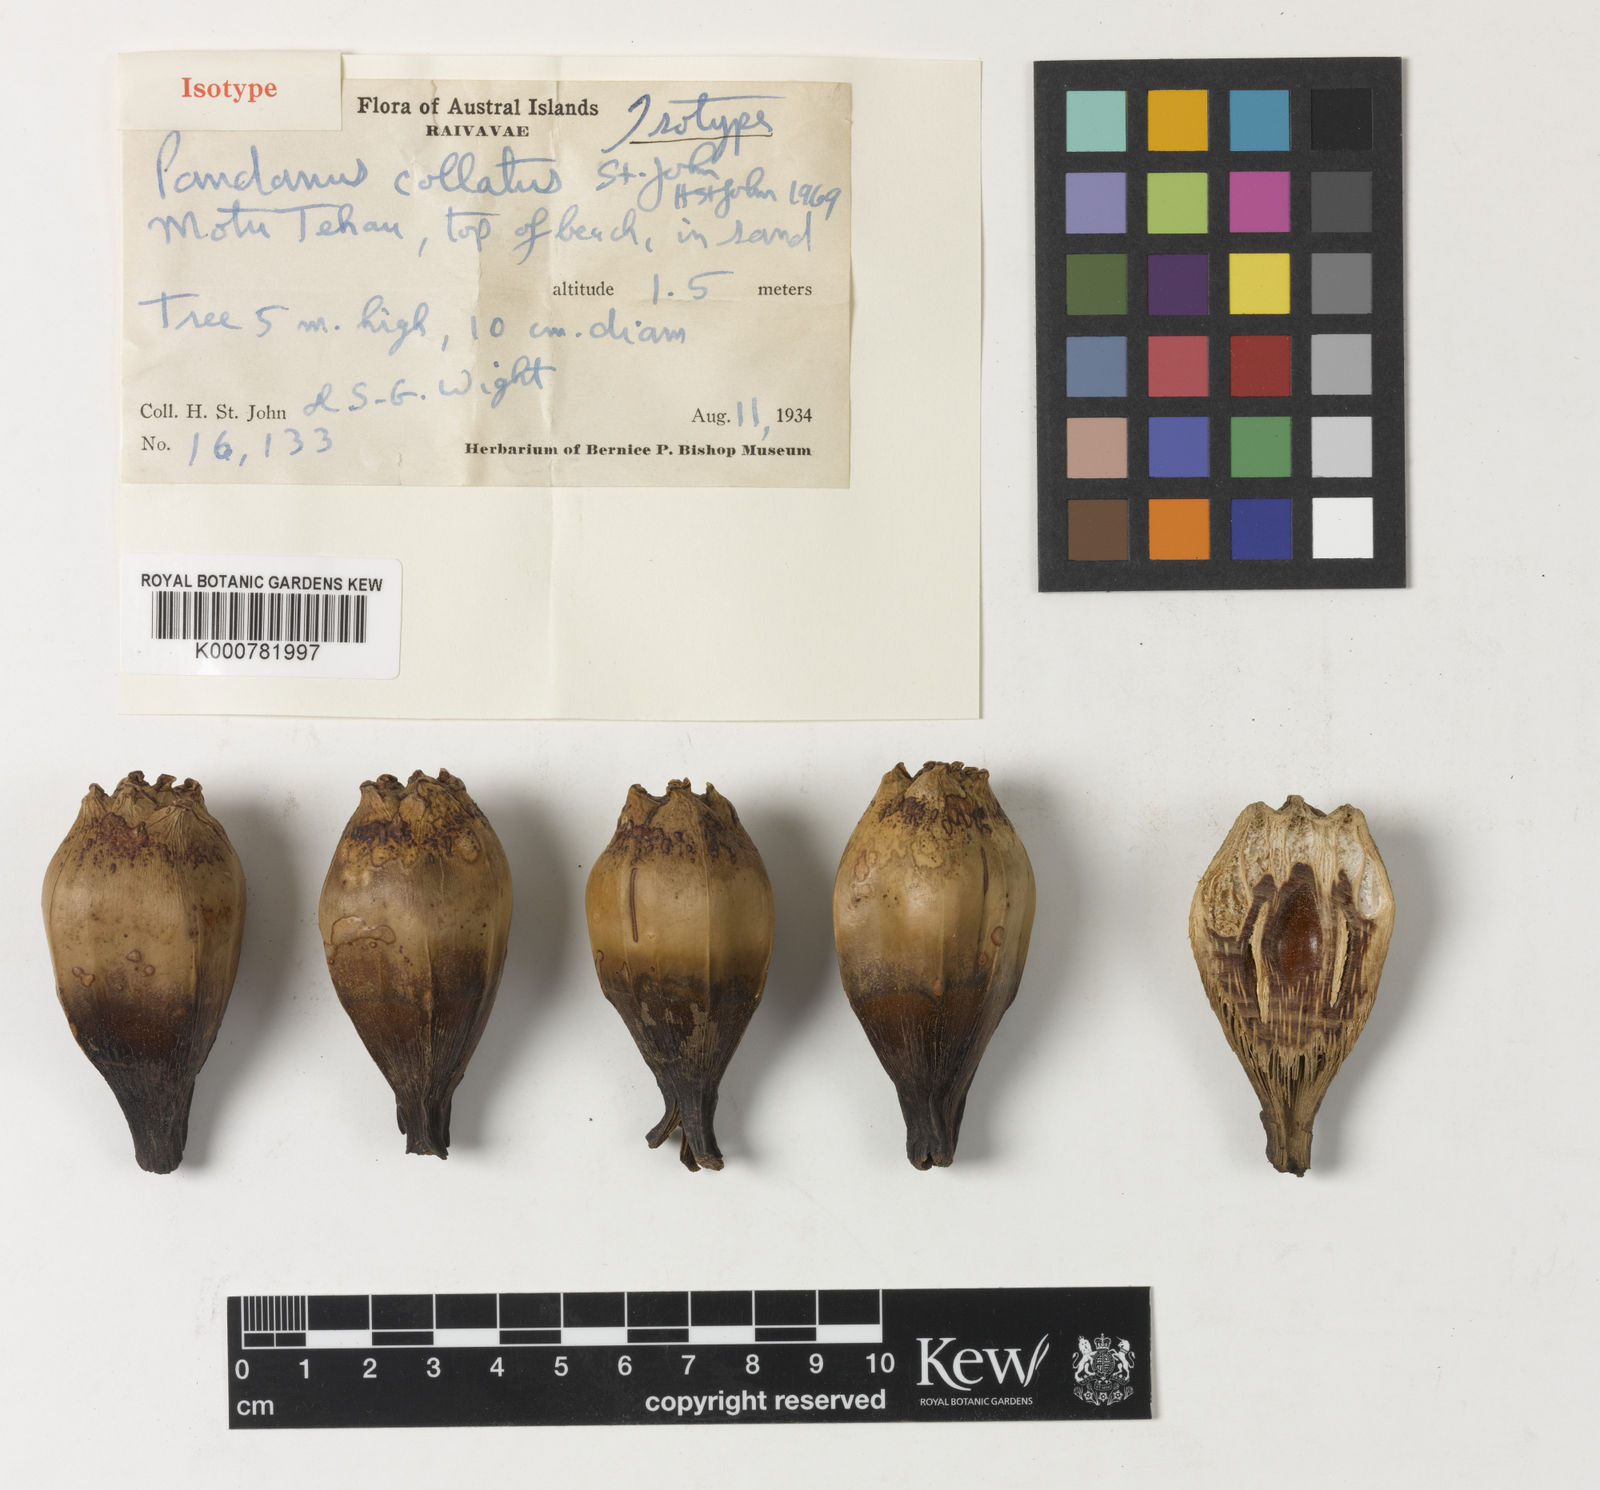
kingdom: Plantae
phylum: Tracheophyta
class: Liliopsida
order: Pandanales
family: Pandanaceae
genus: Pandanus
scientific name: Pandanus tectorius
